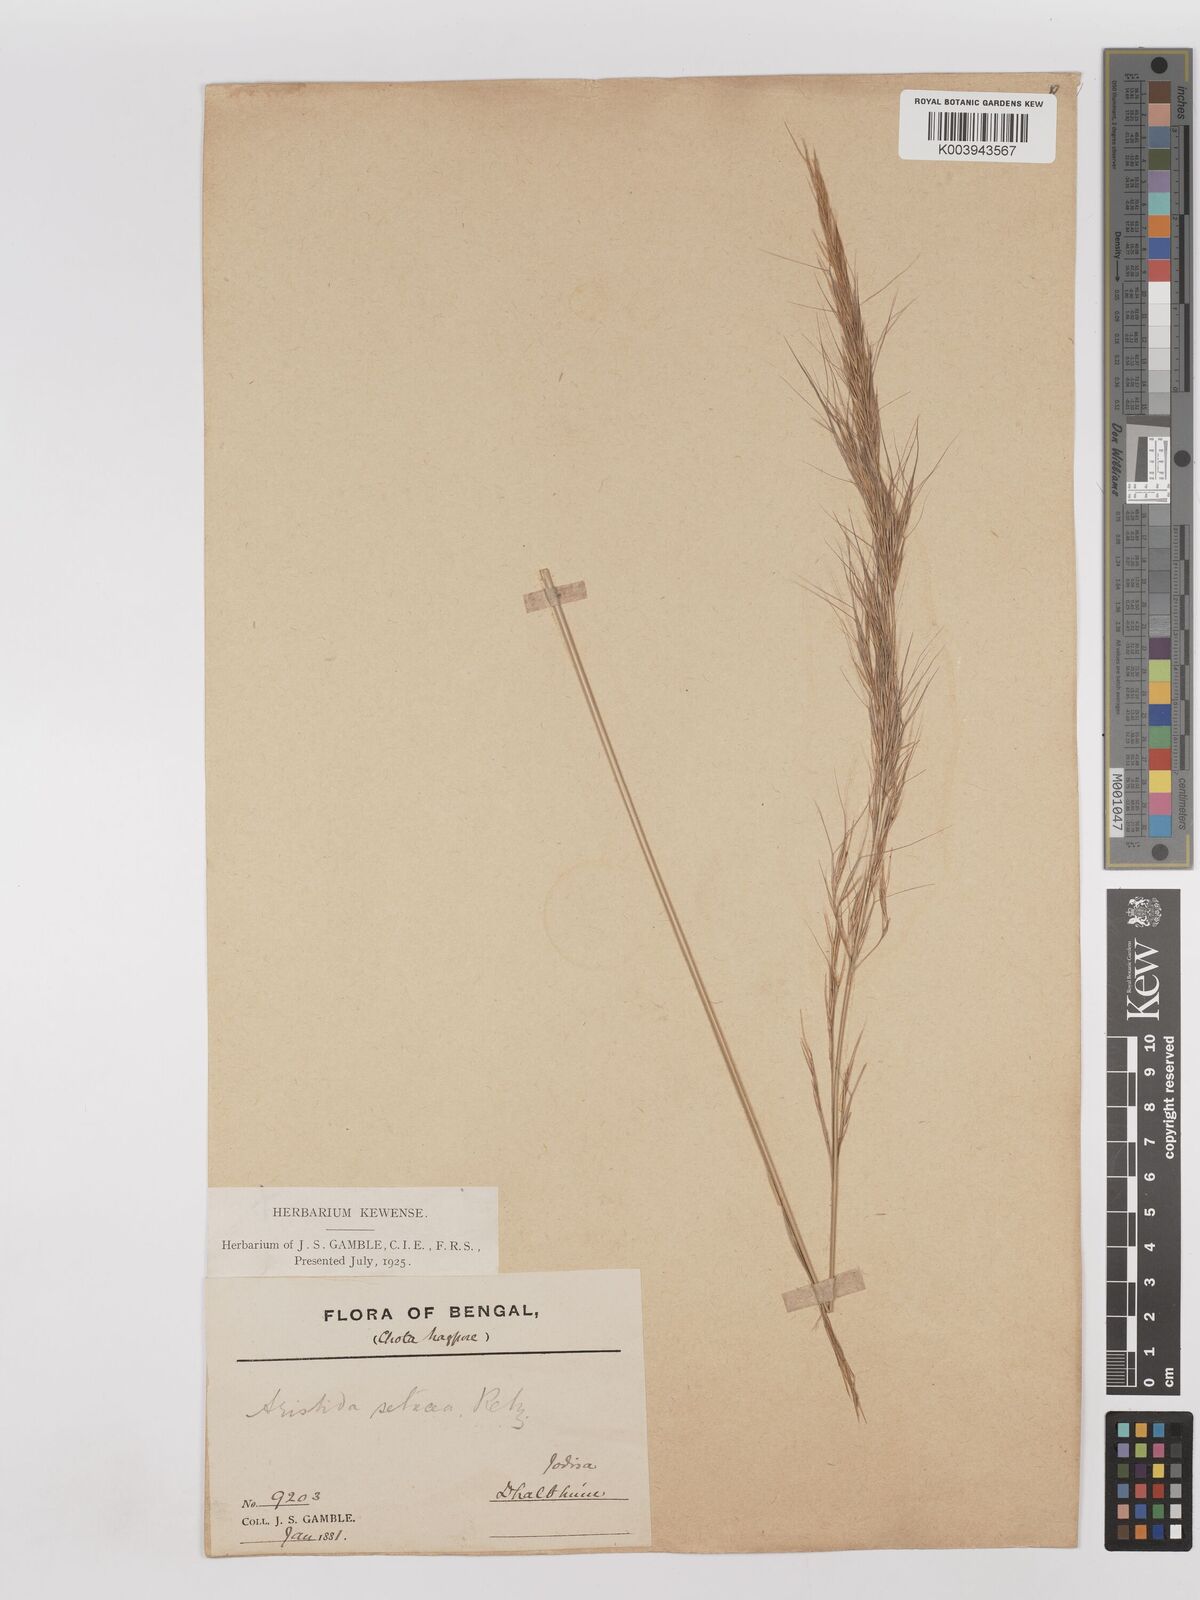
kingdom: Plantae
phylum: Tracheophyta
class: Liliopsida
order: Poales
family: Poaceae
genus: Aristida
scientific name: Aristida setacea
